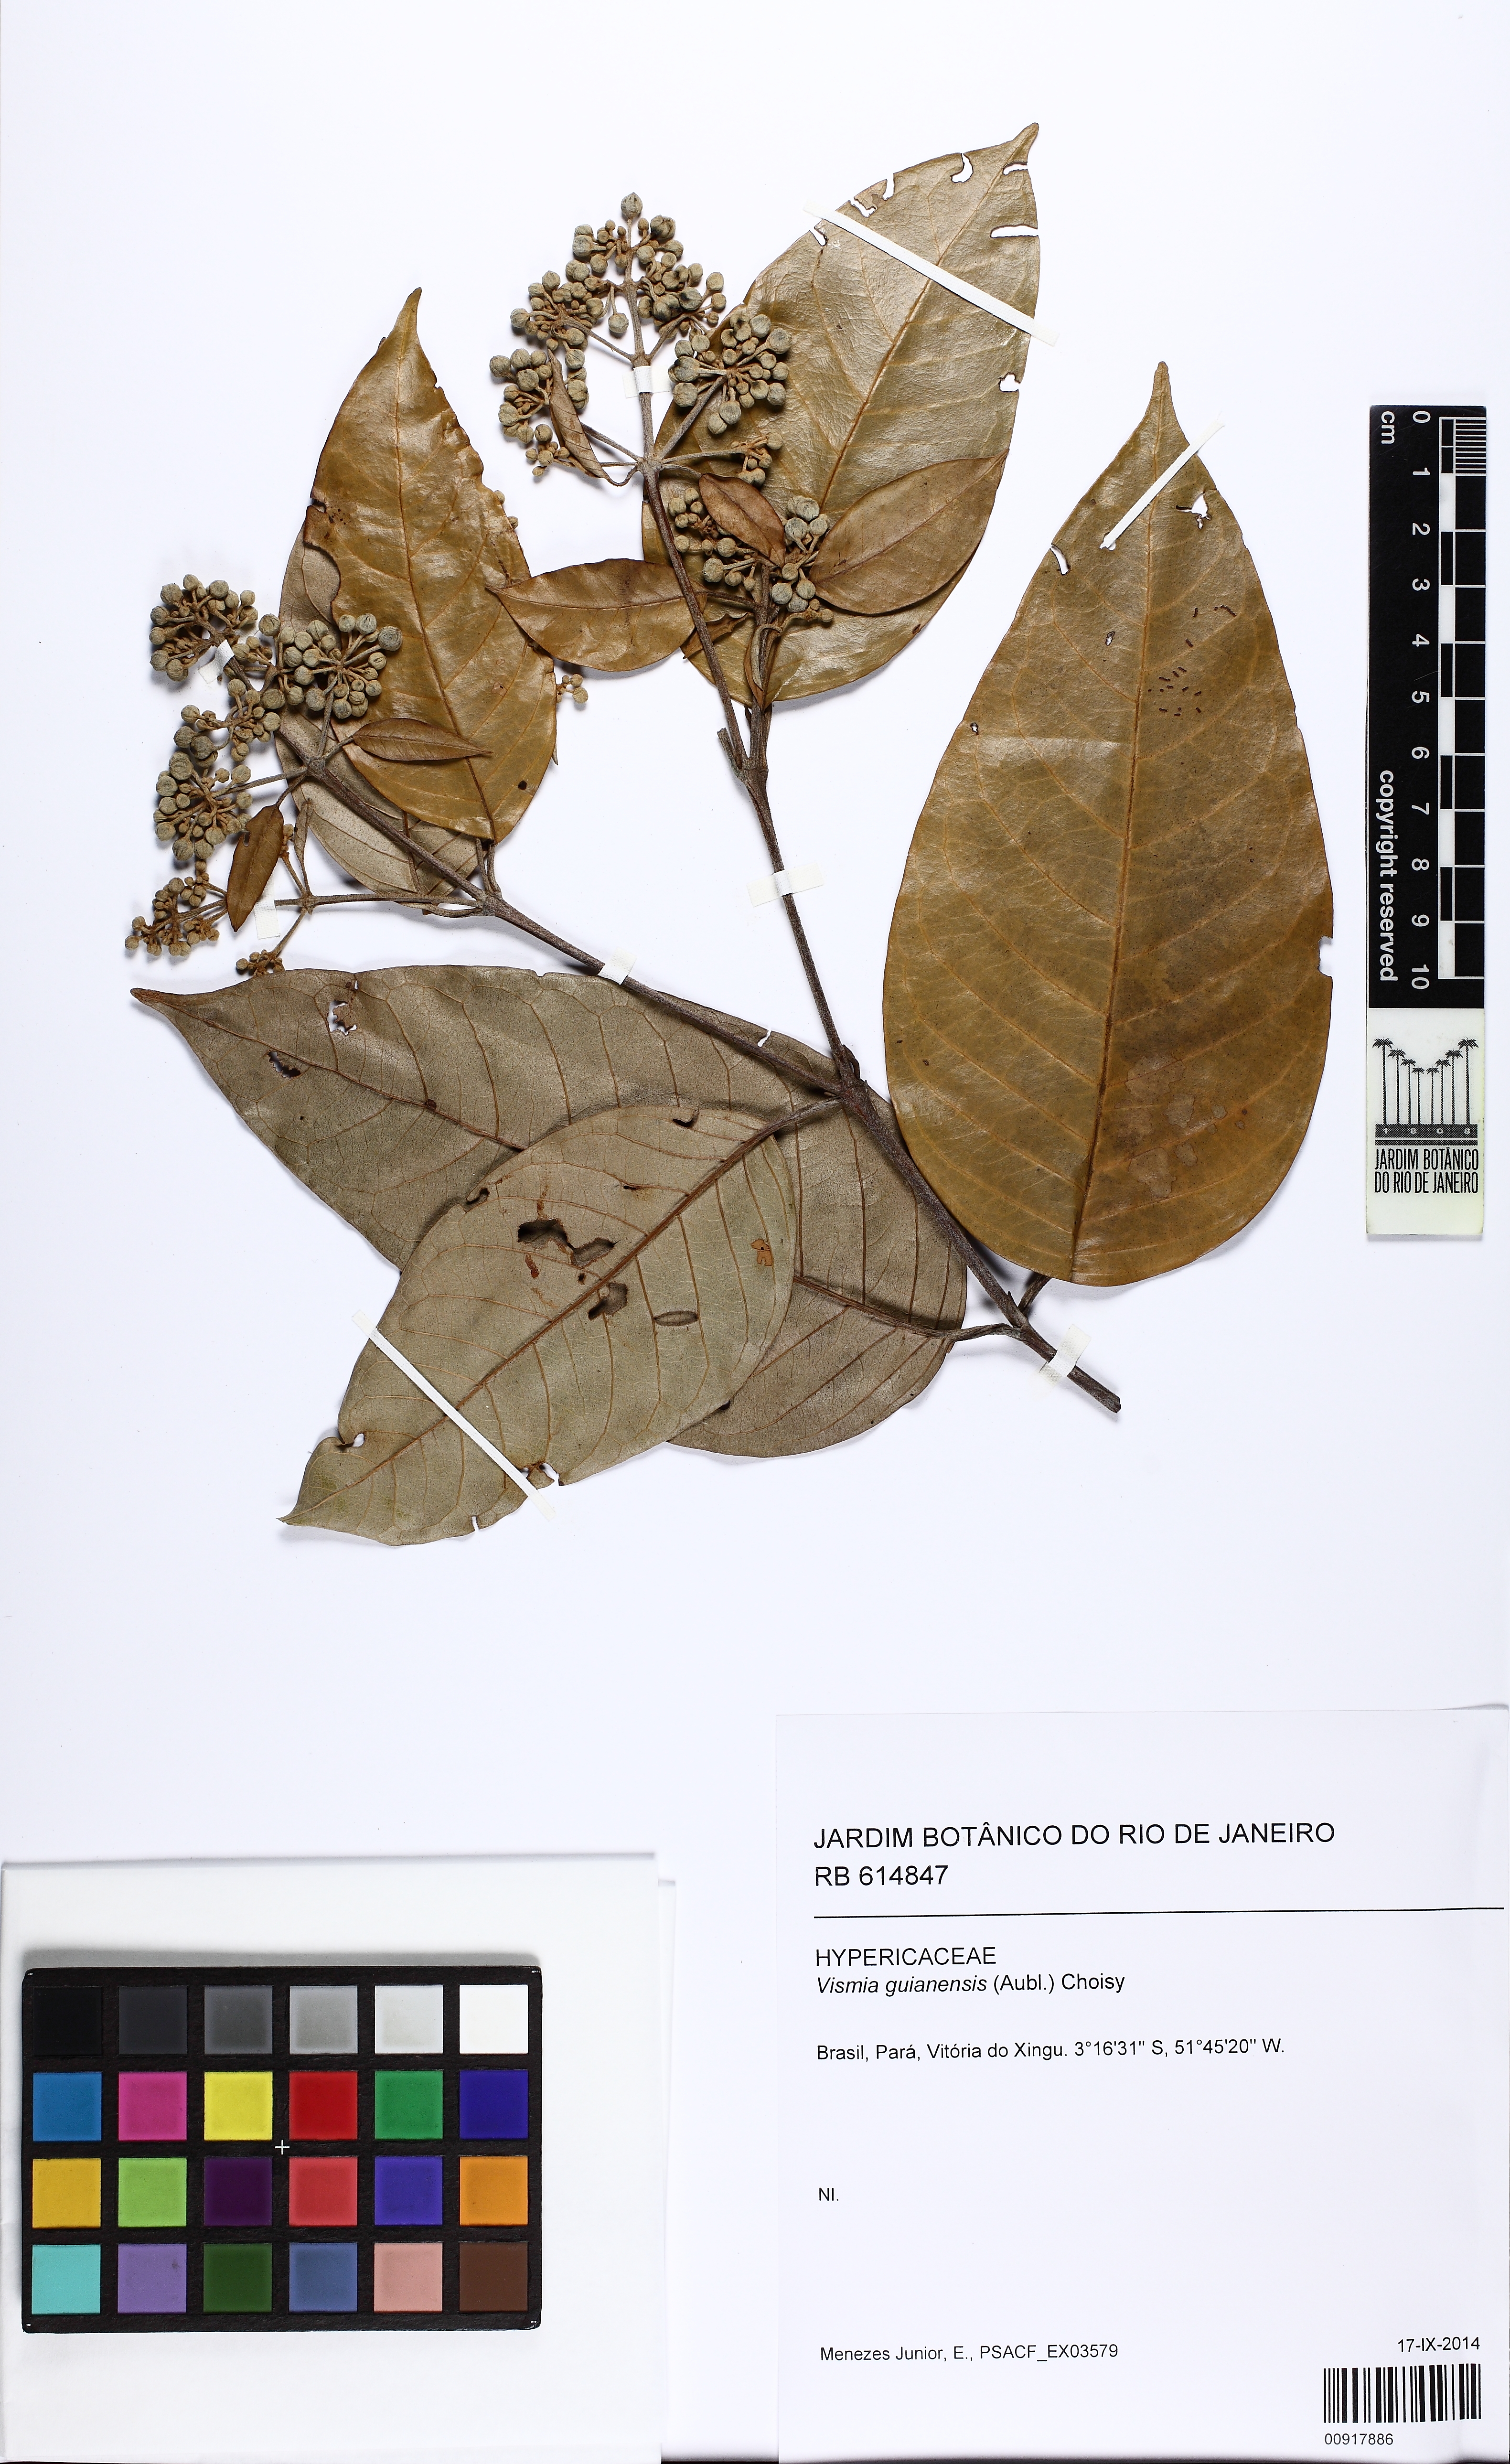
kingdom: Plantae
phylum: Tracheophyta
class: Magnoliopsida
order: Malpighiales
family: Hypericaceae
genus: Vismia
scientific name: Vismia guianensis
